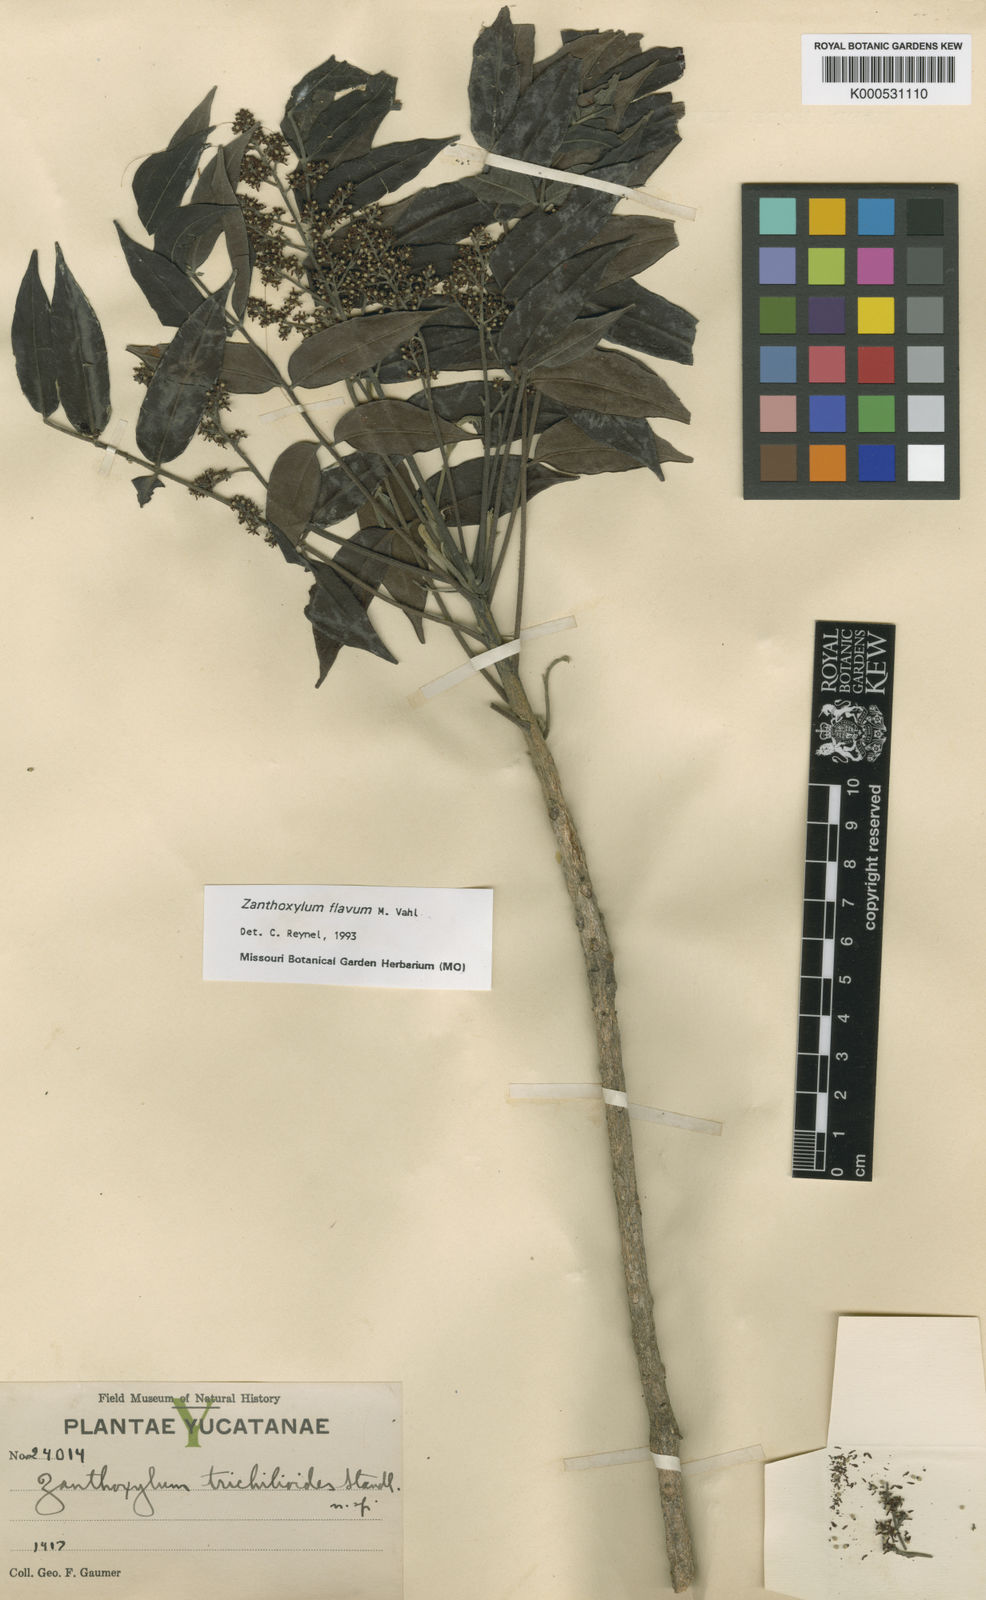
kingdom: Plantae
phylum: Tracheophyta
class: Magnoliopsida
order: Sapindales
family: Rutaceae
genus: Zanthoxylum
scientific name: Zanthoxylum flavum
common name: West indian satinwood
